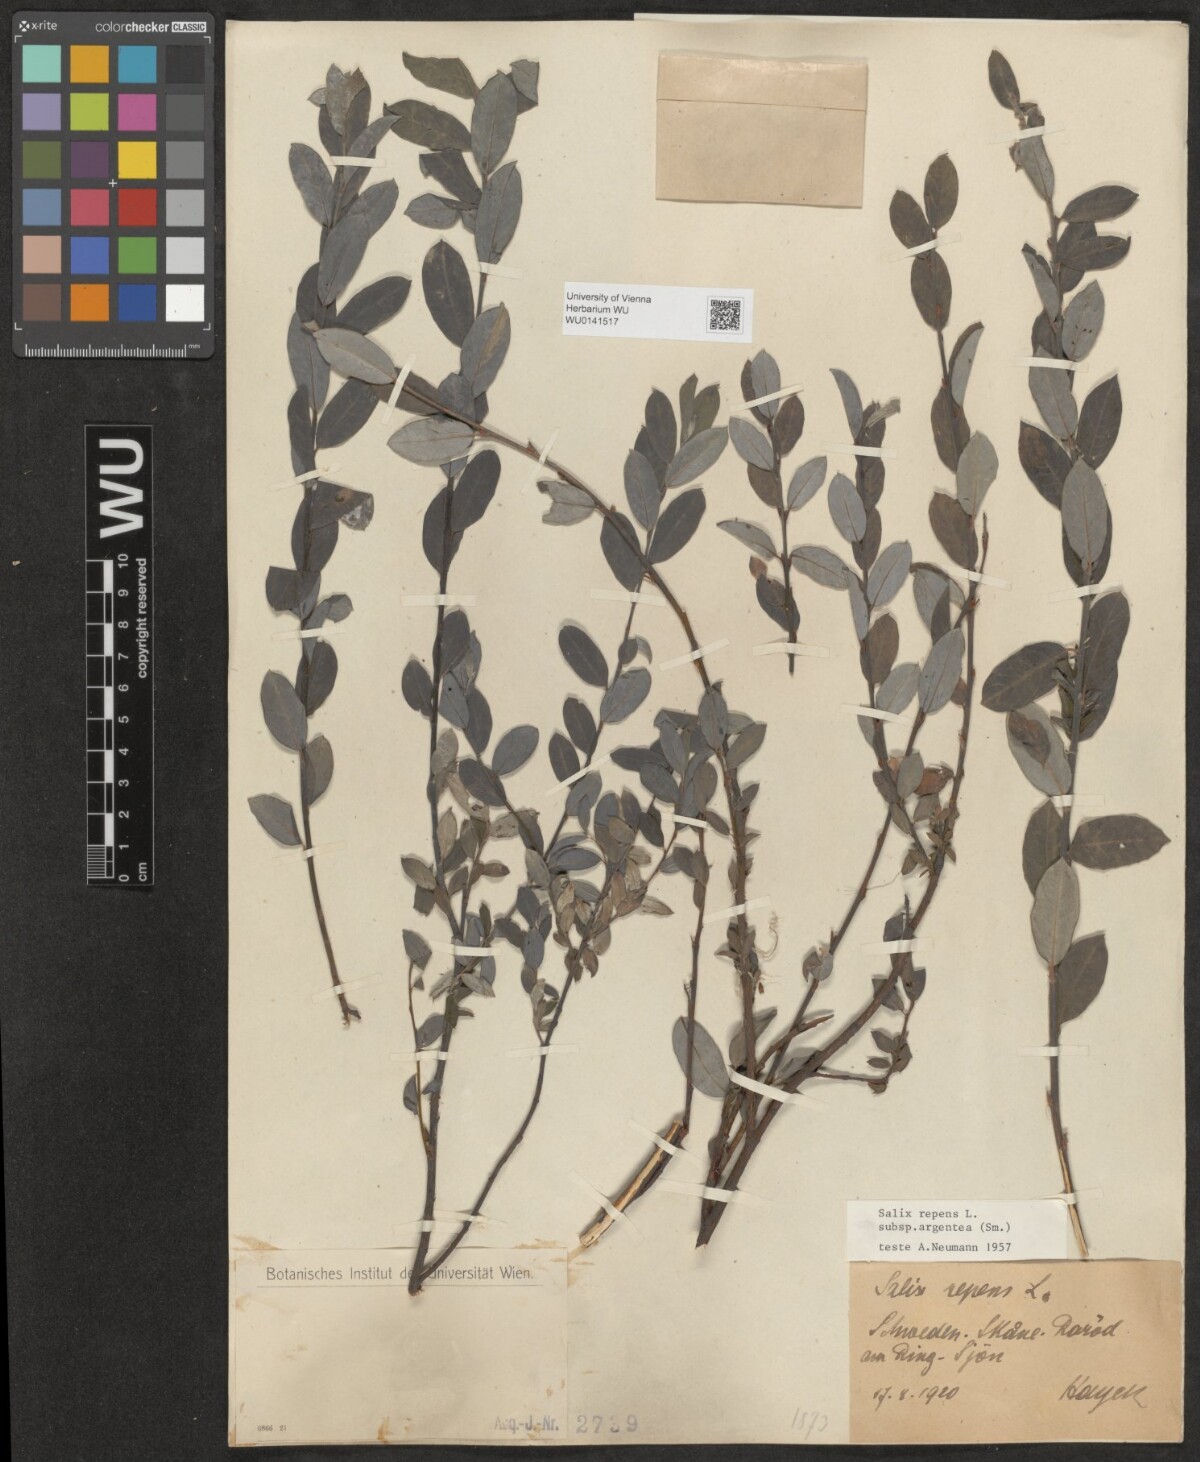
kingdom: Plantae
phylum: Tracheophyta
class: Magnoliopsida
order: Malpighiales
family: Salicaceae
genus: Salix
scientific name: Salix repens
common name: Creeping willow
